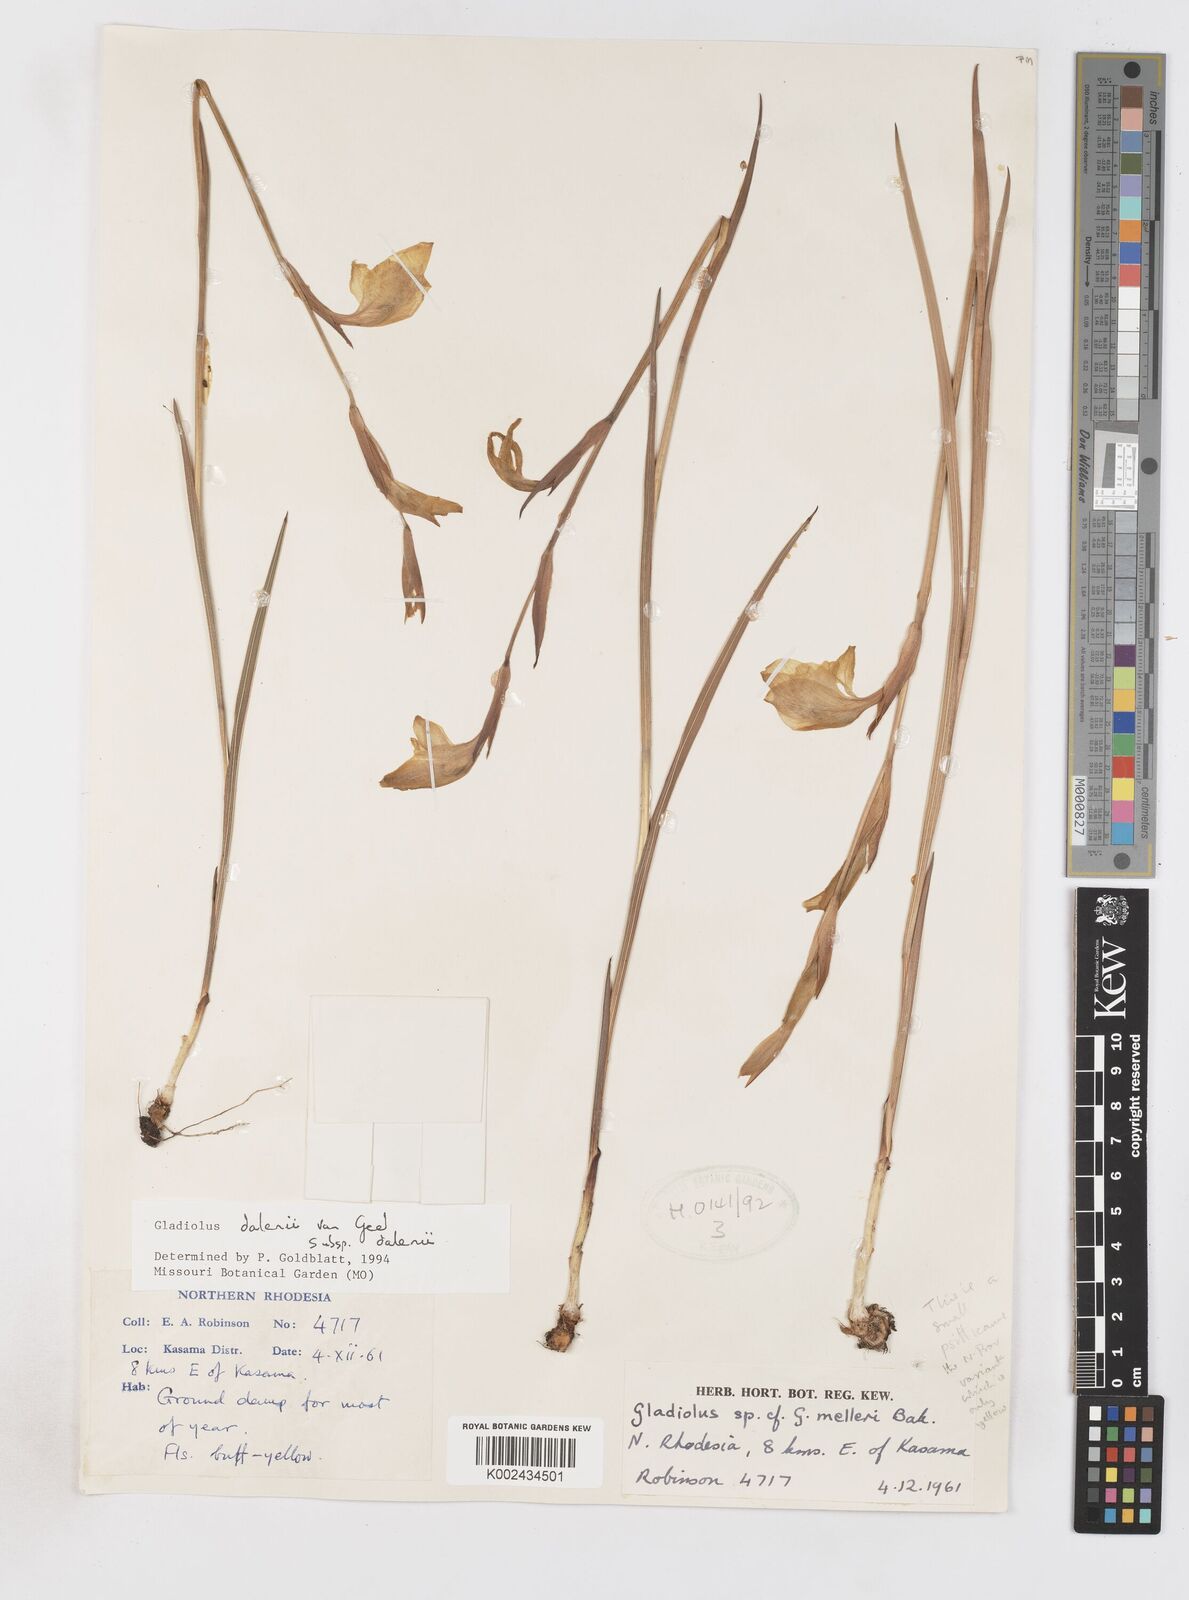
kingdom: Plantae
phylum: Tracheophyta
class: Liliopsida
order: Asparagales
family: Iridaceae
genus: Gladiolus
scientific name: Gladiolus dalenii
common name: Cornflag
